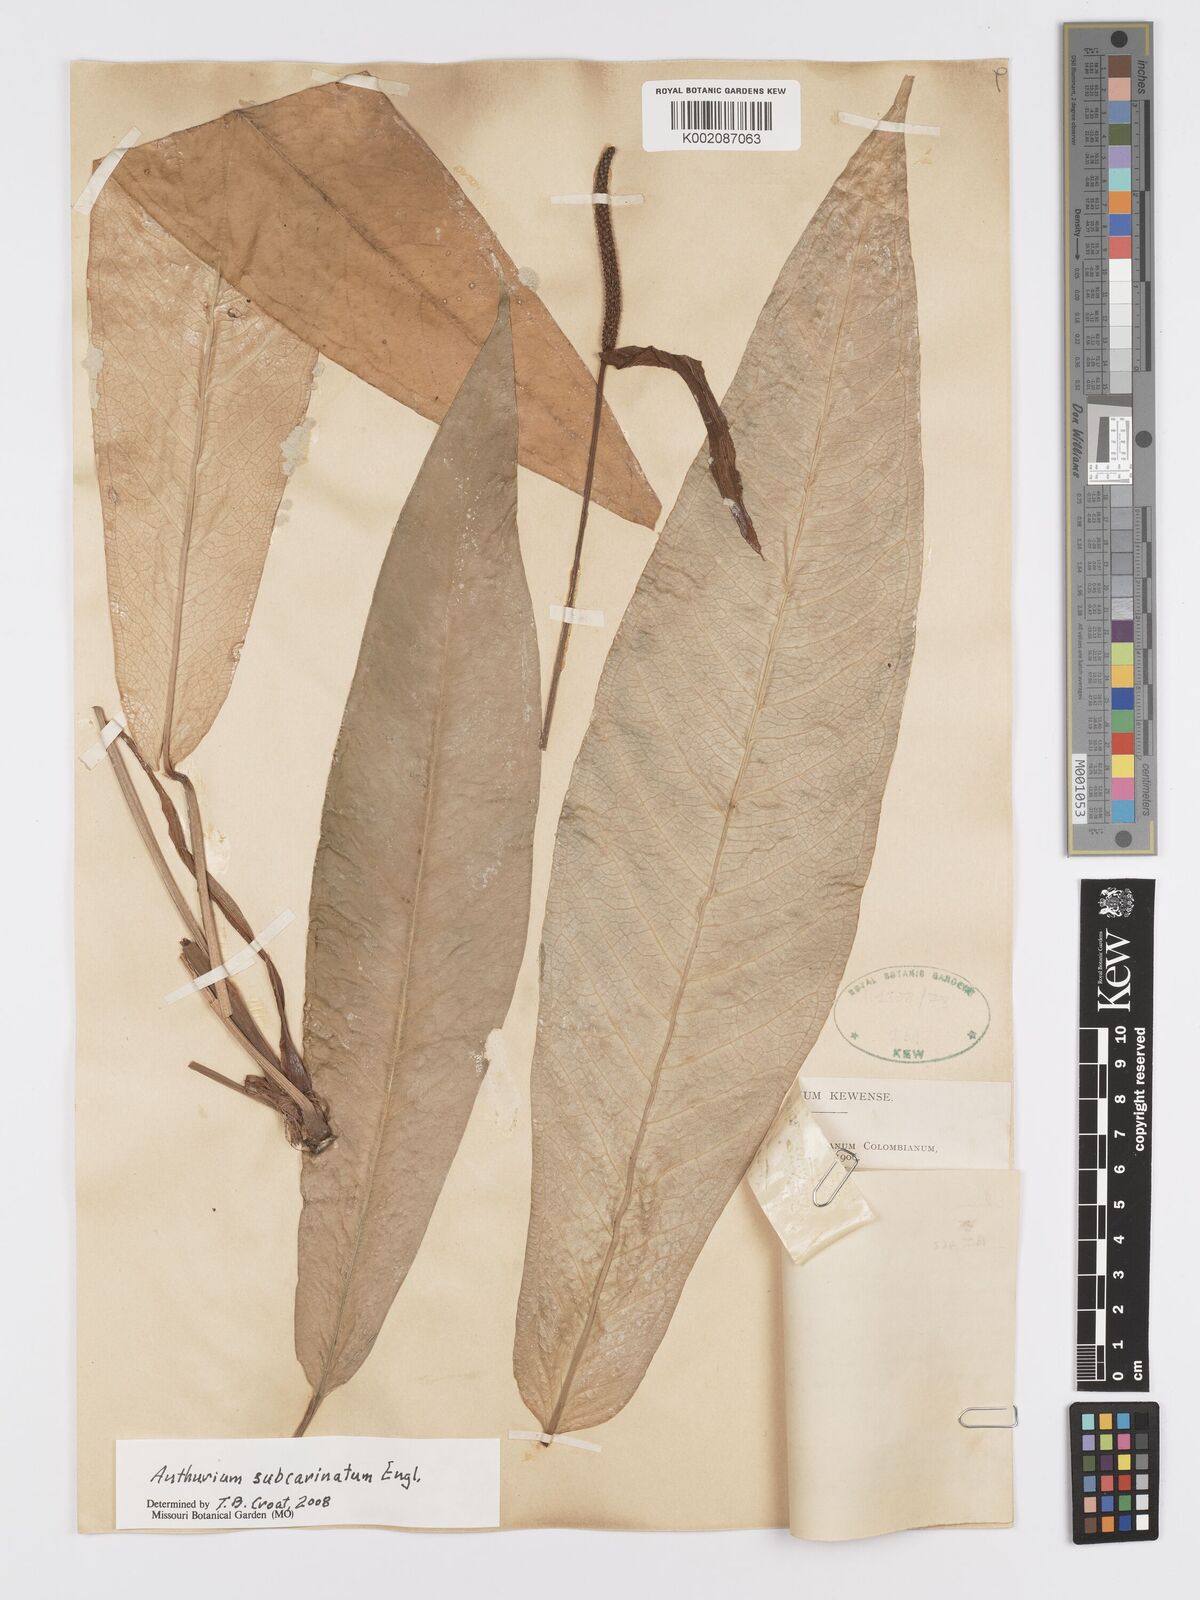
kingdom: Plantae
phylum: Tracheophyta
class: Liliopsida
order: Alismatales
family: Araceae
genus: Anthurium
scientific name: Anthurium subcarinatum
